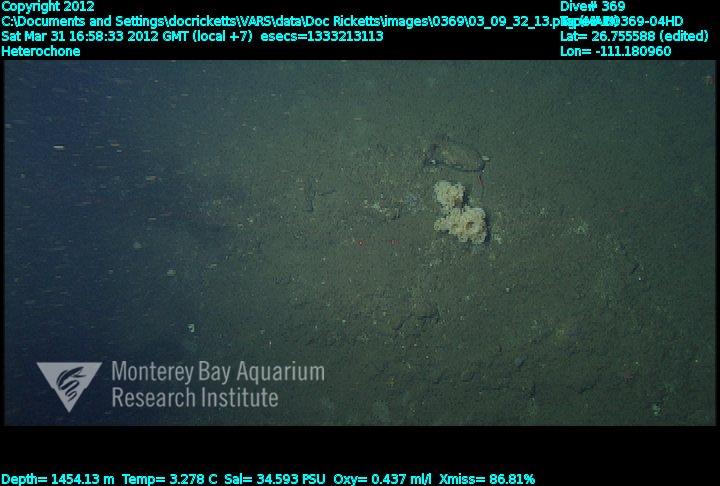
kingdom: Animalia
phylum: Porifera
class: Hexactinellida
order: Sceptrulophora
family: Aphrocallistidae
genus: Heterochone
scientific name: Heterochone
